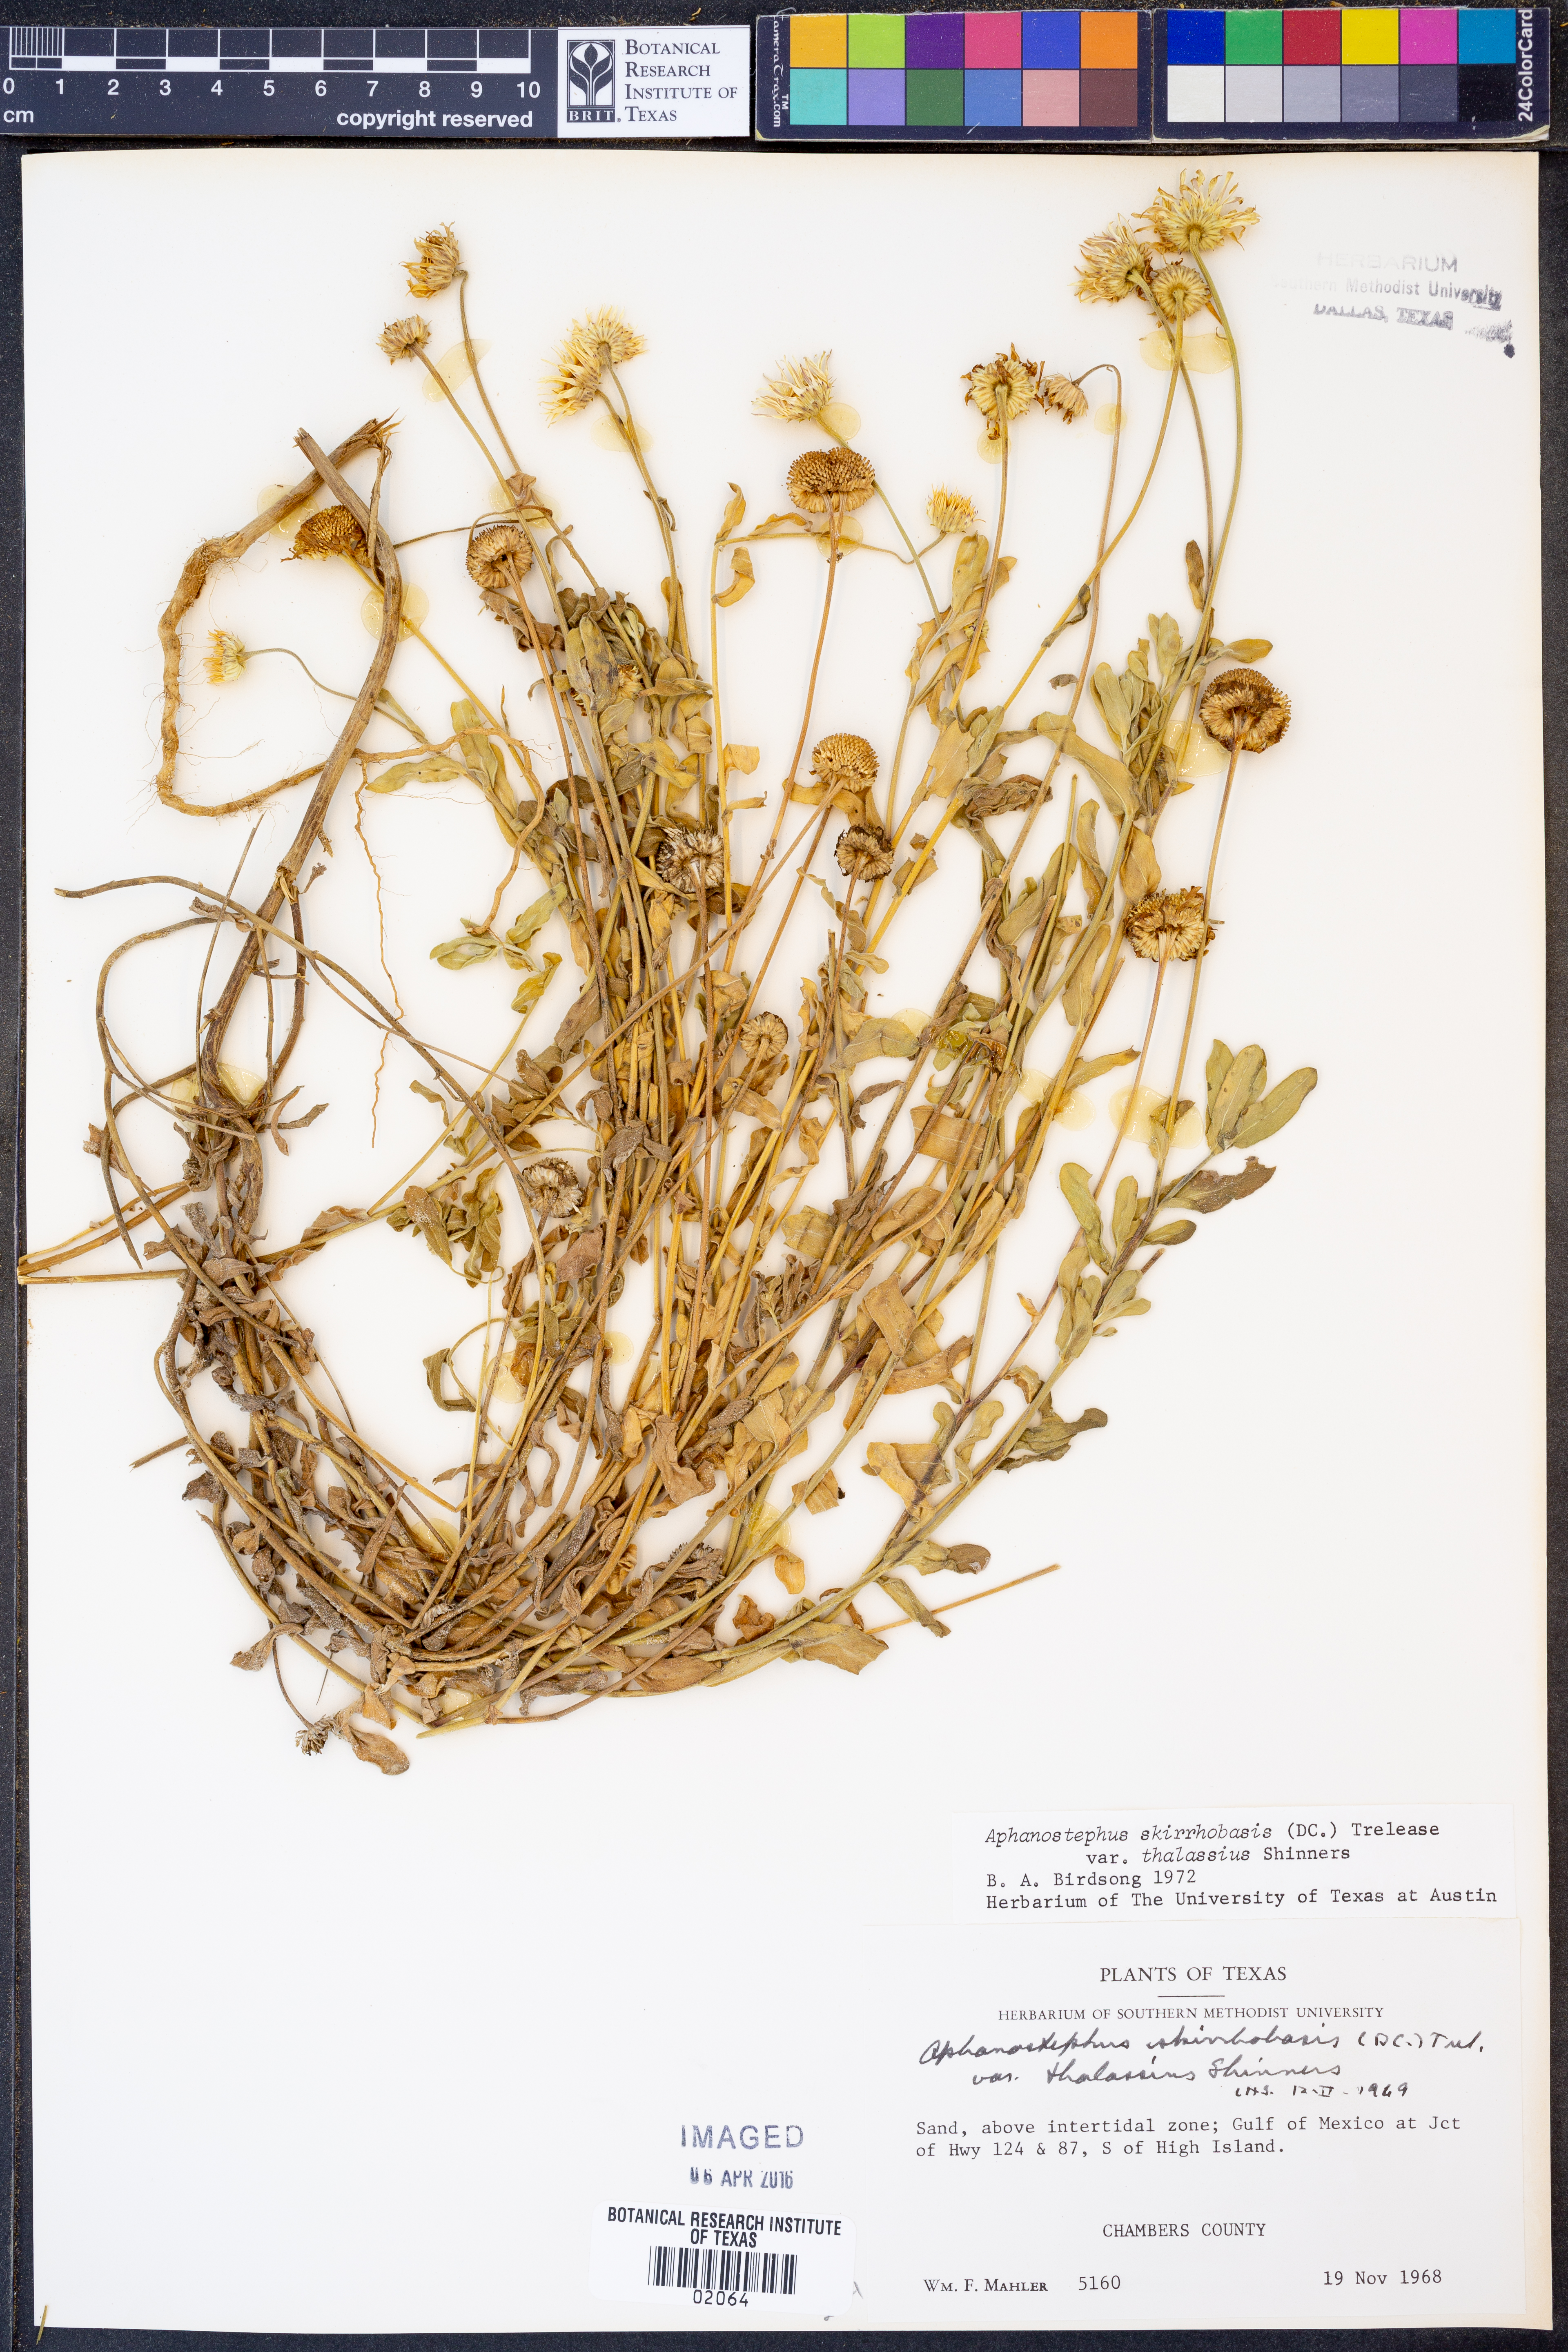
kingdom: Plantae
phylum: Tracheophyta
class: Magnoliopsida
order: Asterales
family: Asteraceae
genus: Aphanostephus
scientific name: Aphanostephus skirrhobasis
